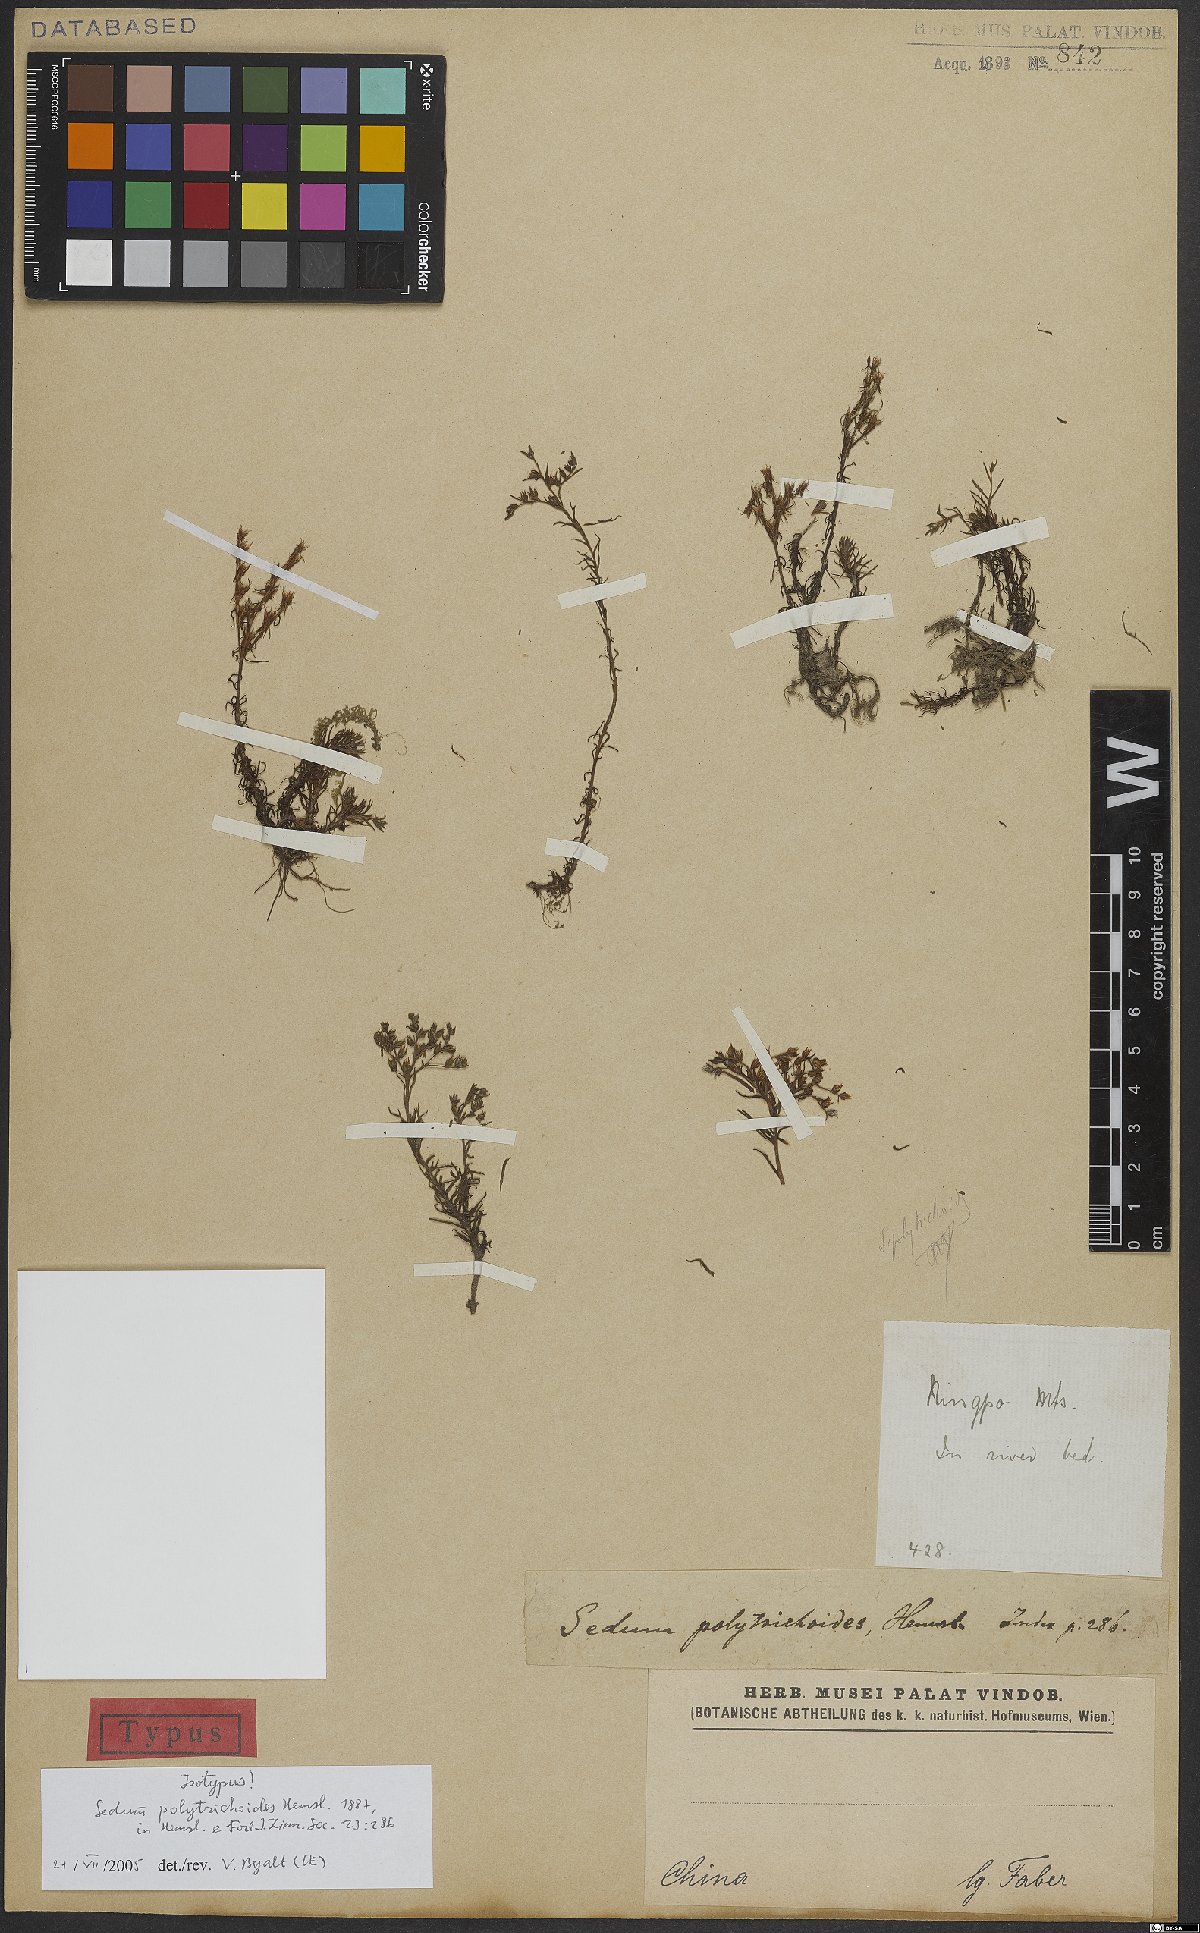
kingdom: Plantae
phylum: Tracheophyta
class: Magnoliopsida
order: Saxifragales
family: Crassulaceae
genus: Sedum
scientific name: Sedum polytrichoides
